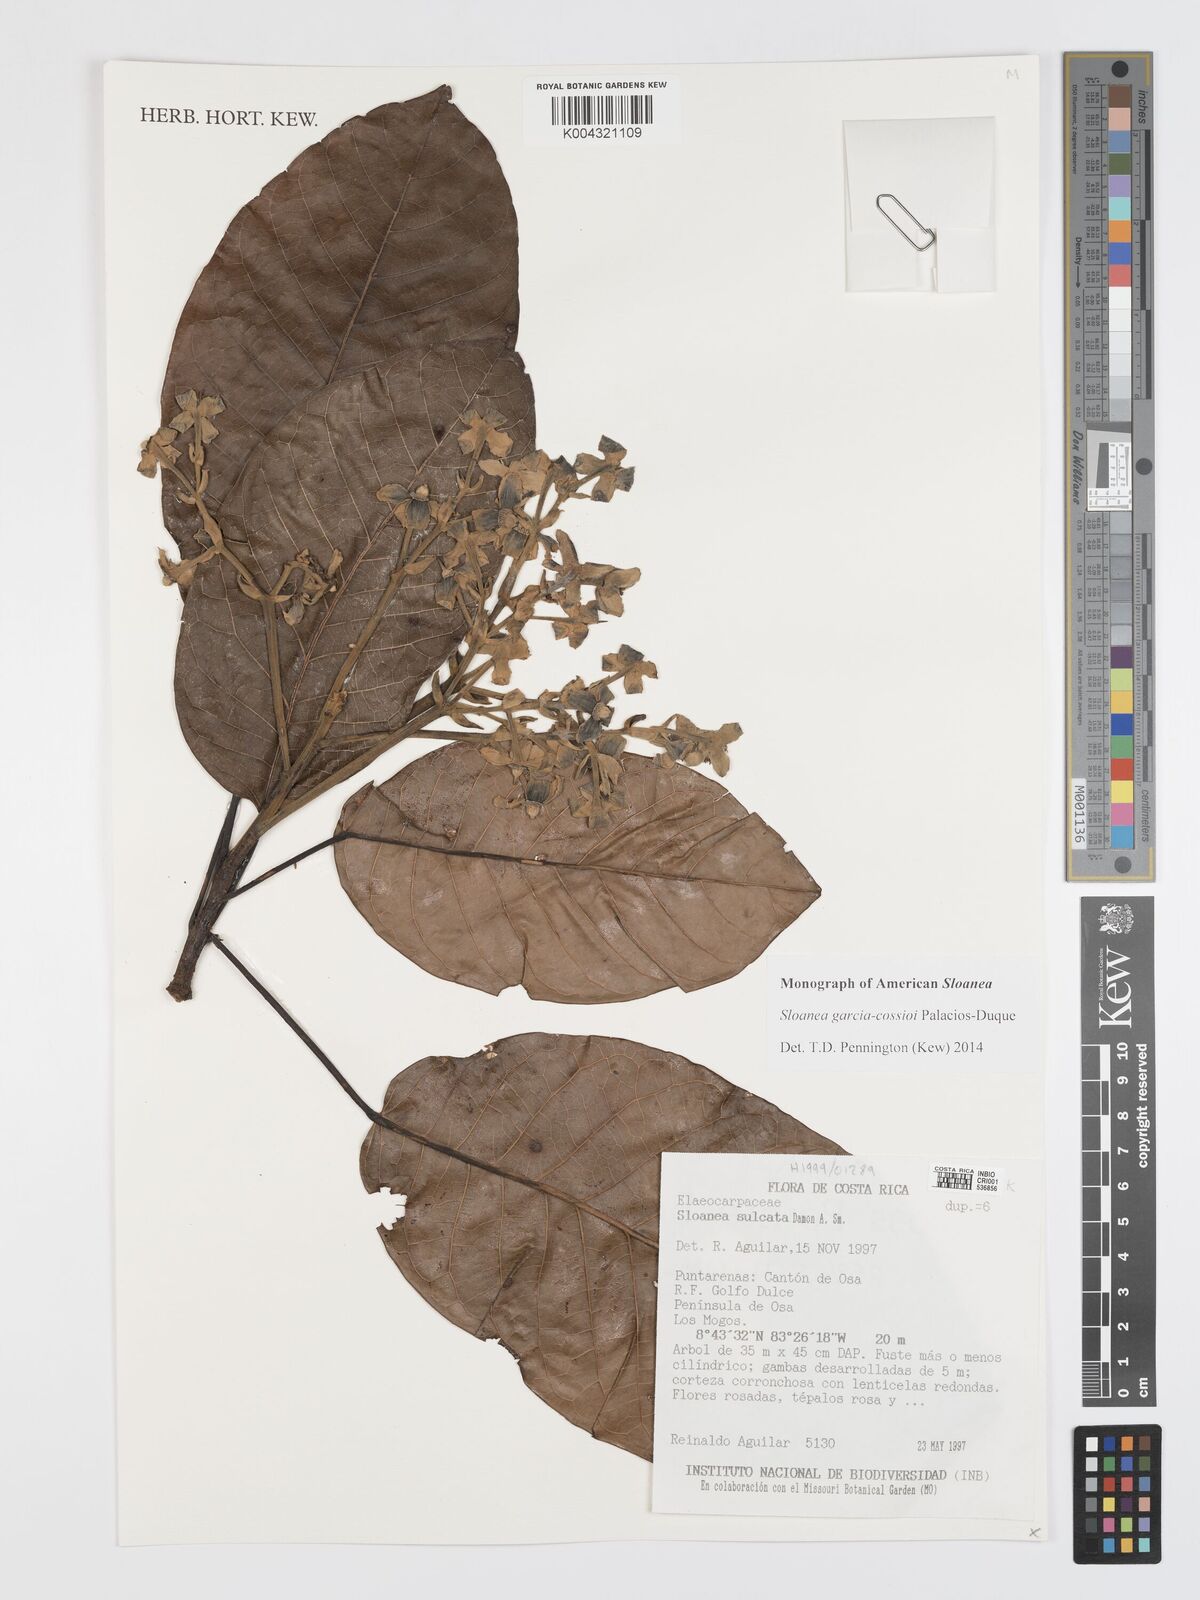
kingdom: Plantae
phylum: Tracheophyta
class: Magnoliopsida
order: Oxalidales
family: Elaeocarpaceae
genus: Sloanea
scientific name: Sloanea garcia-cossioi
